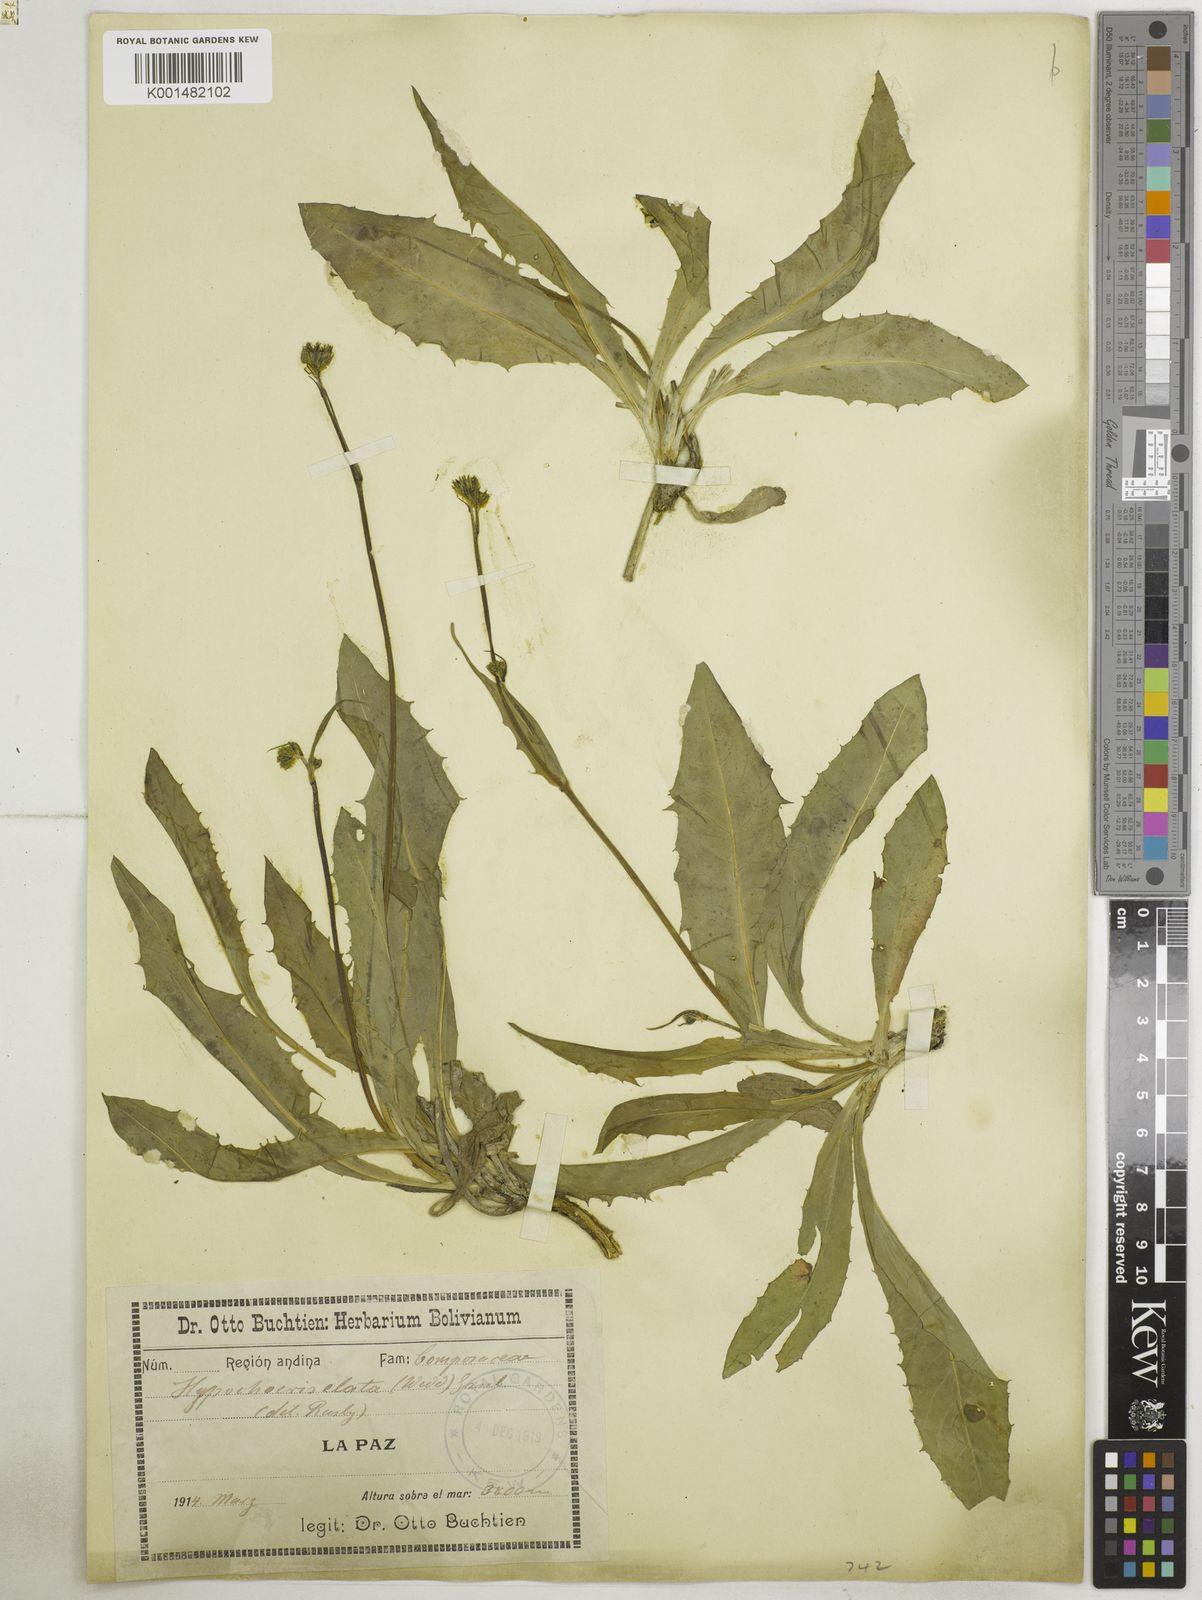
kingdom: Plantae
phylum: Tracheophyta
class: Magnoliopsida
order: Asterales
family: Asteraceae
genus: Hypochaeris
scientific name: Hypochaeris elata
